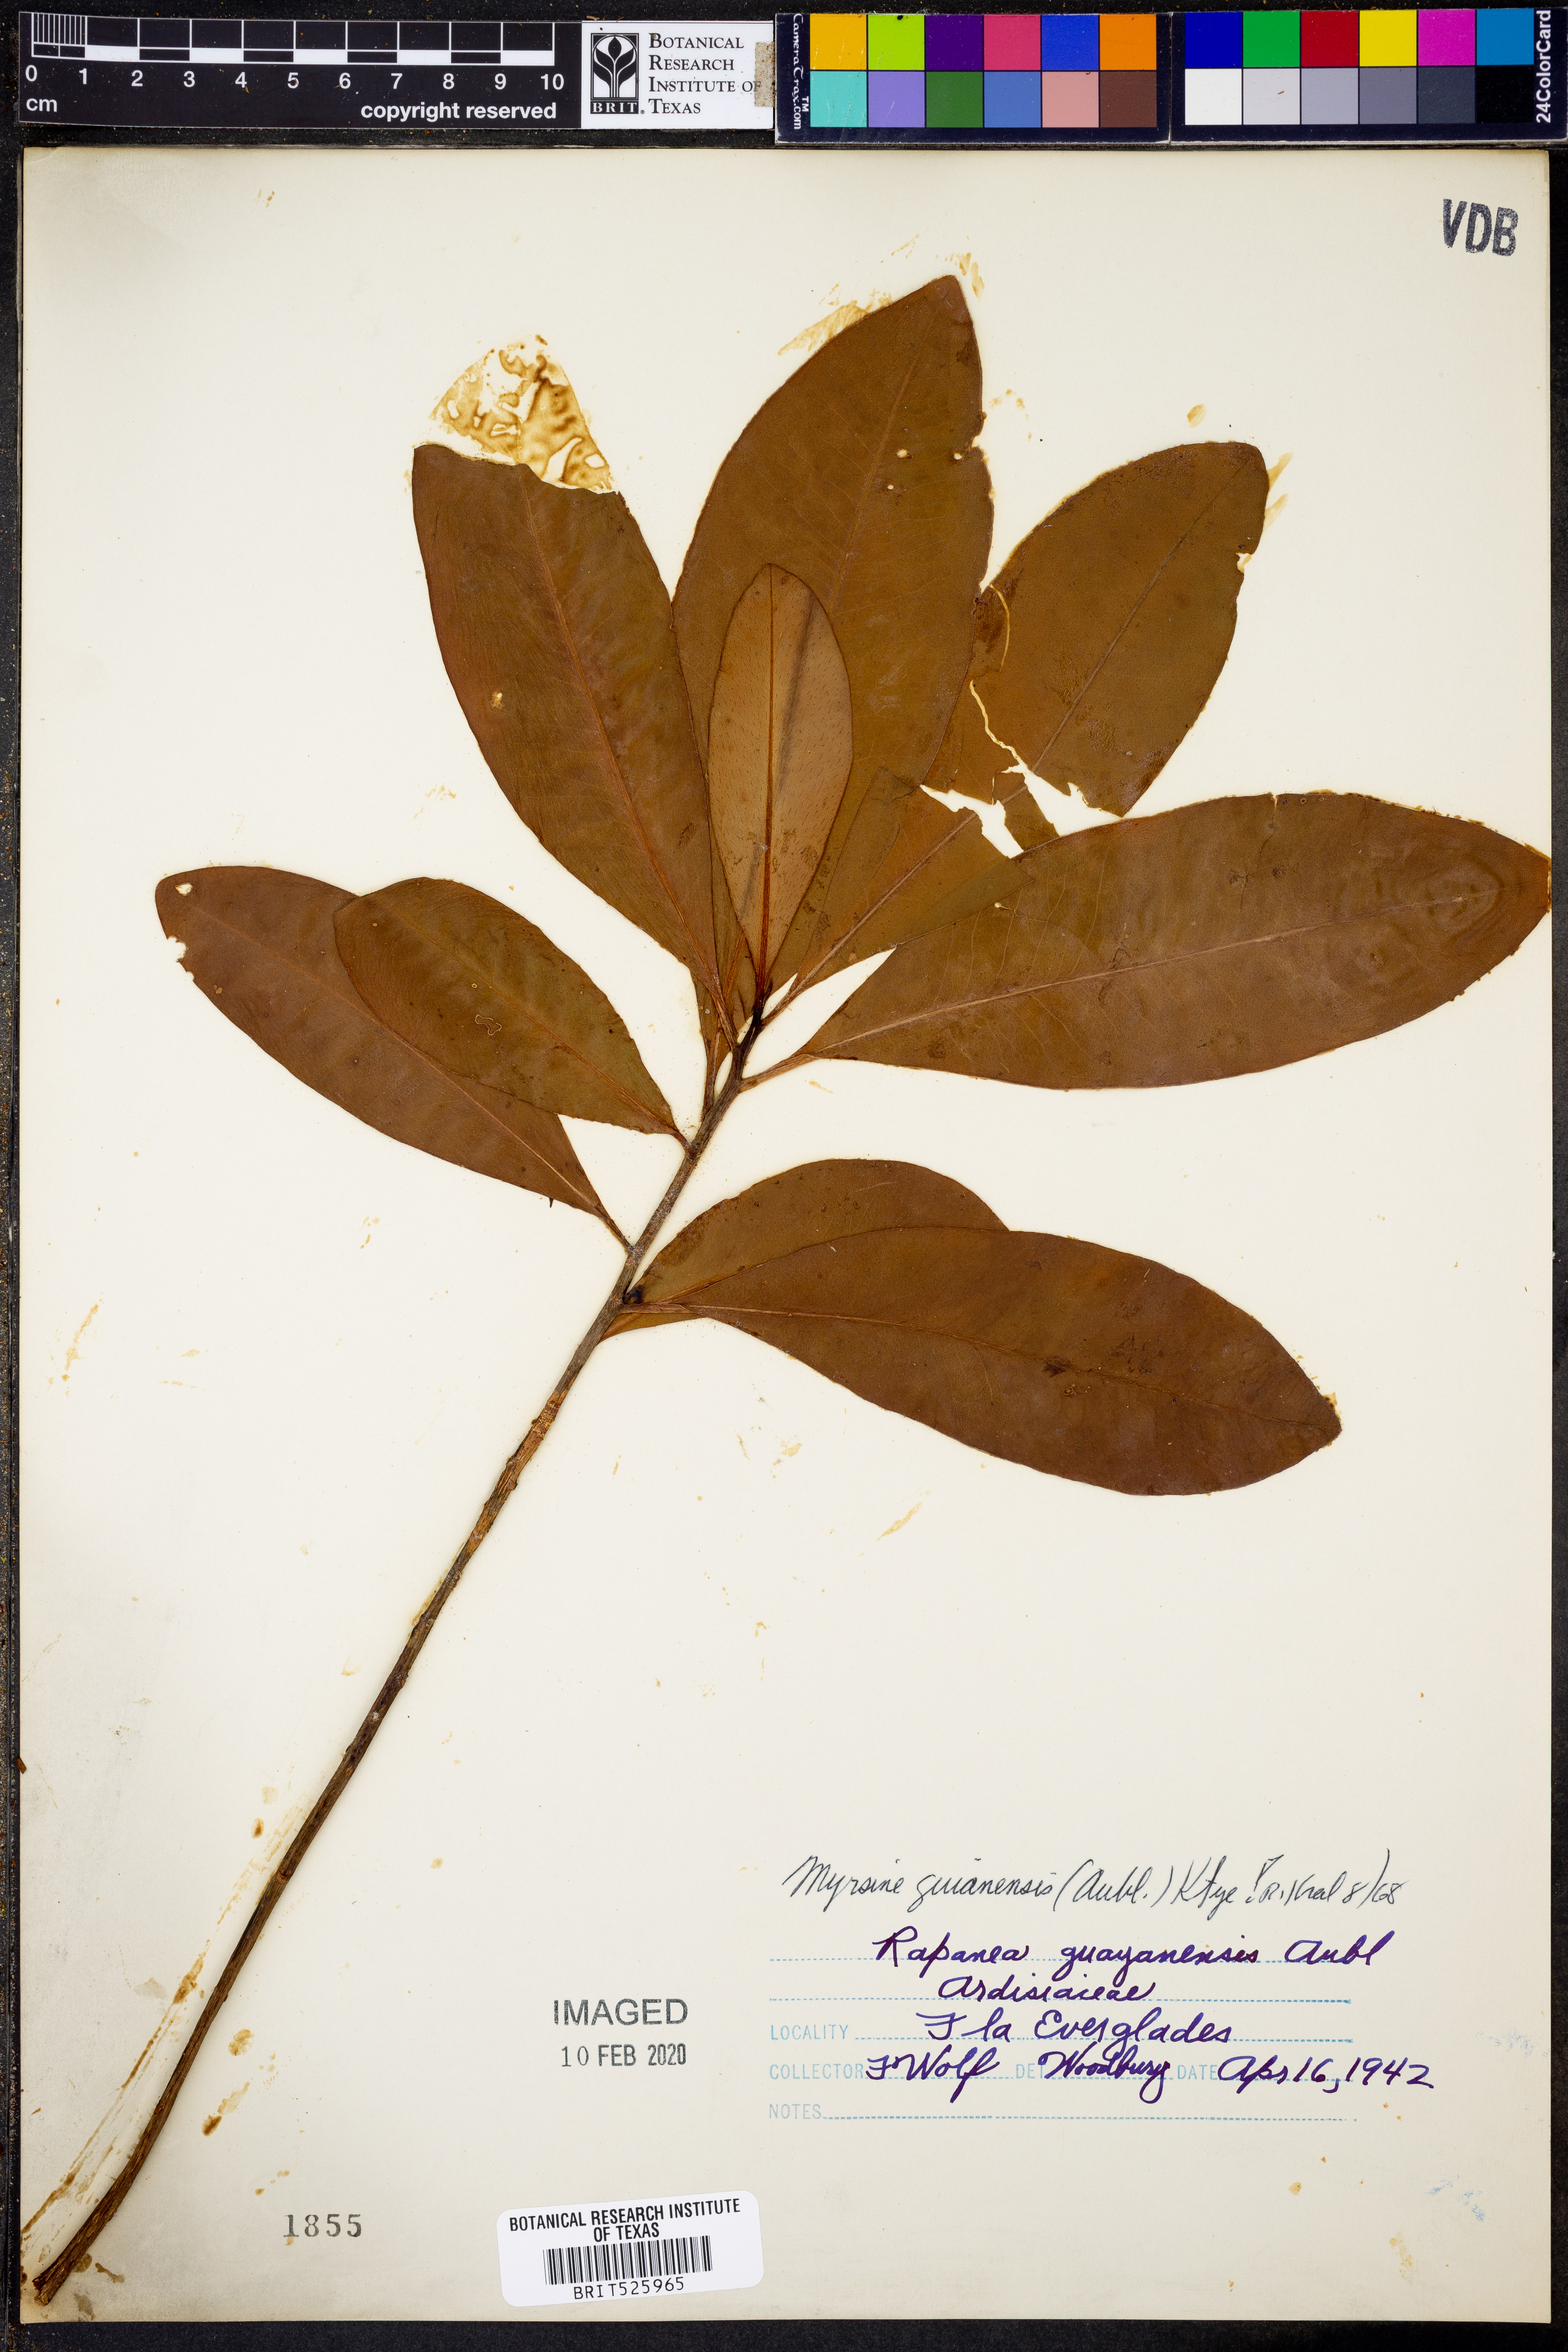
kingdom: Plantae
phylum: Tracheophyta
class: Magnoliopsida
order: Ericales
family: Primulaceae
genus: Myrsine
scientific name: Myrsine guianensis
